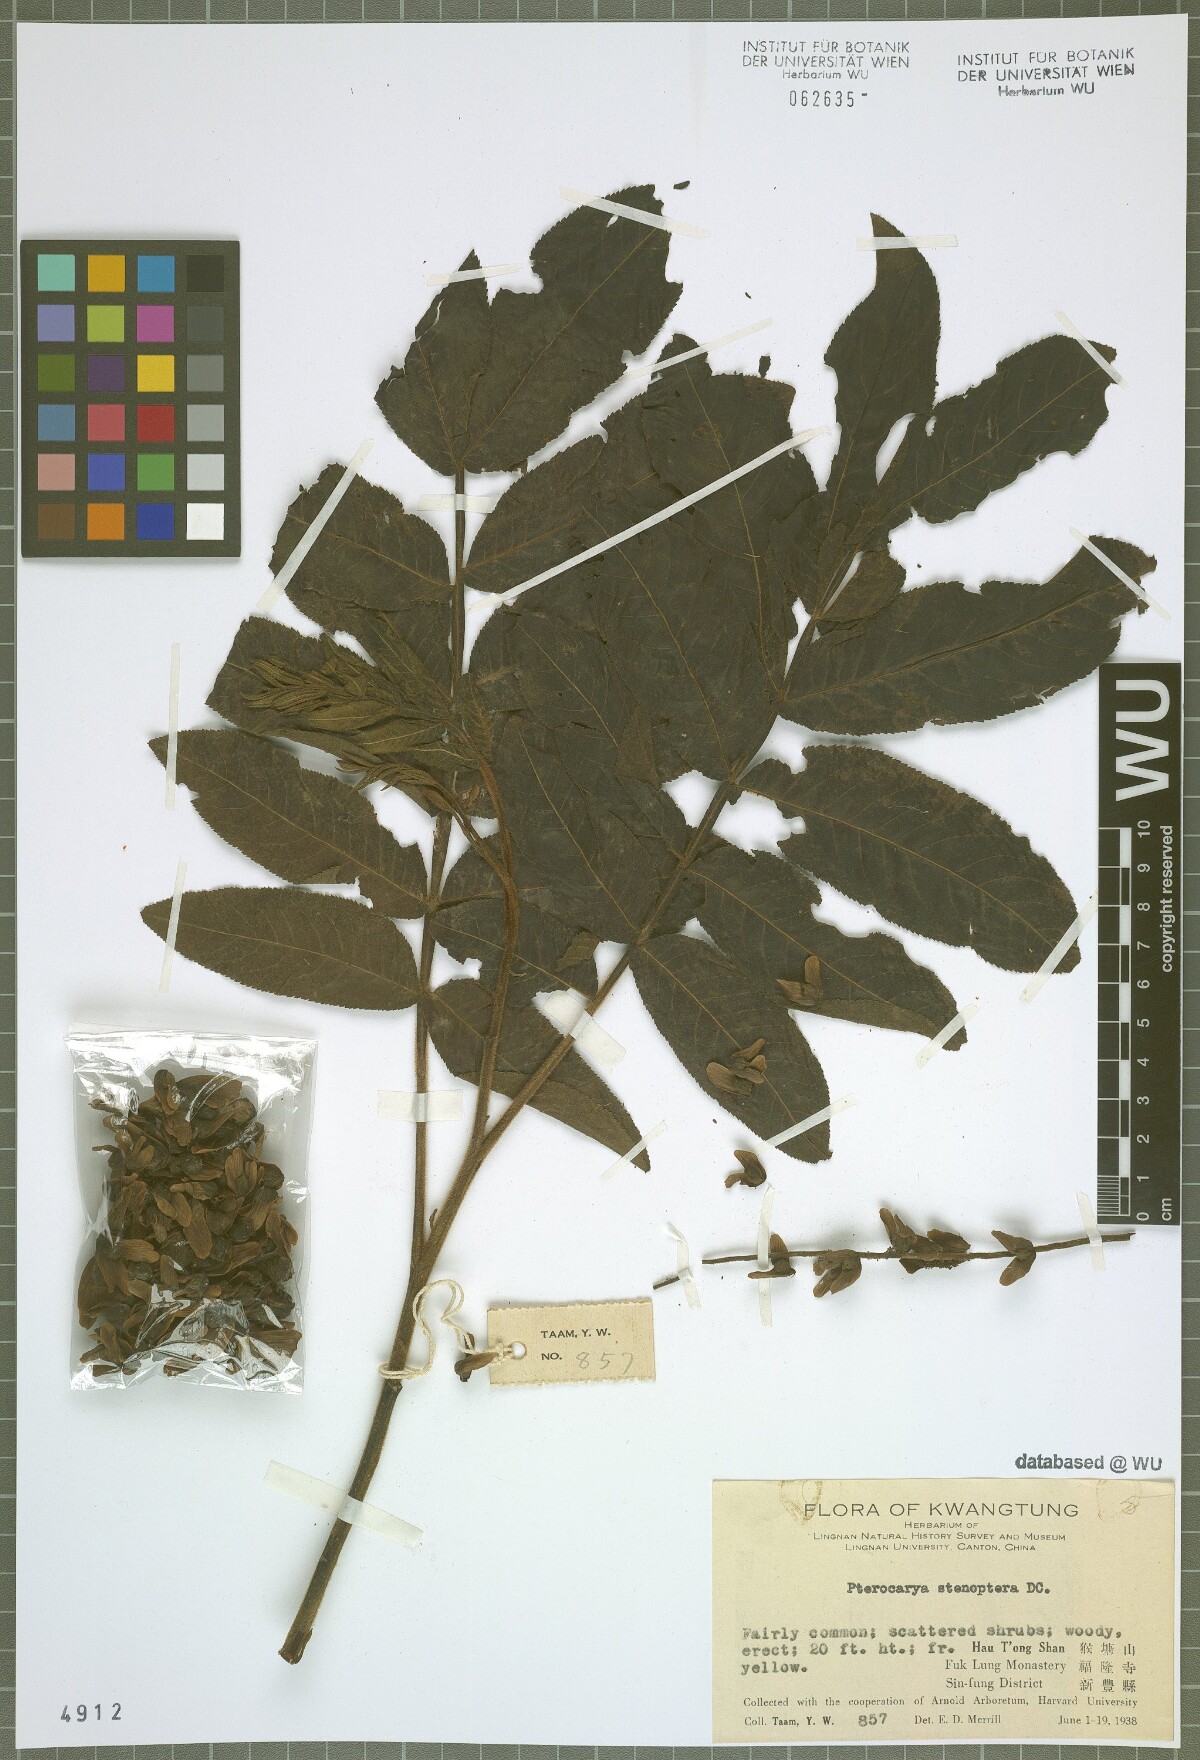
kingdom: Plantae
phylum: Tracheophyta
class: Magnoliopsida
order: Fagales
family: Juglandaceae
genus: Pterocarya
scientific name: Pterocarya stenoptera
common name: Chinese wingnut
